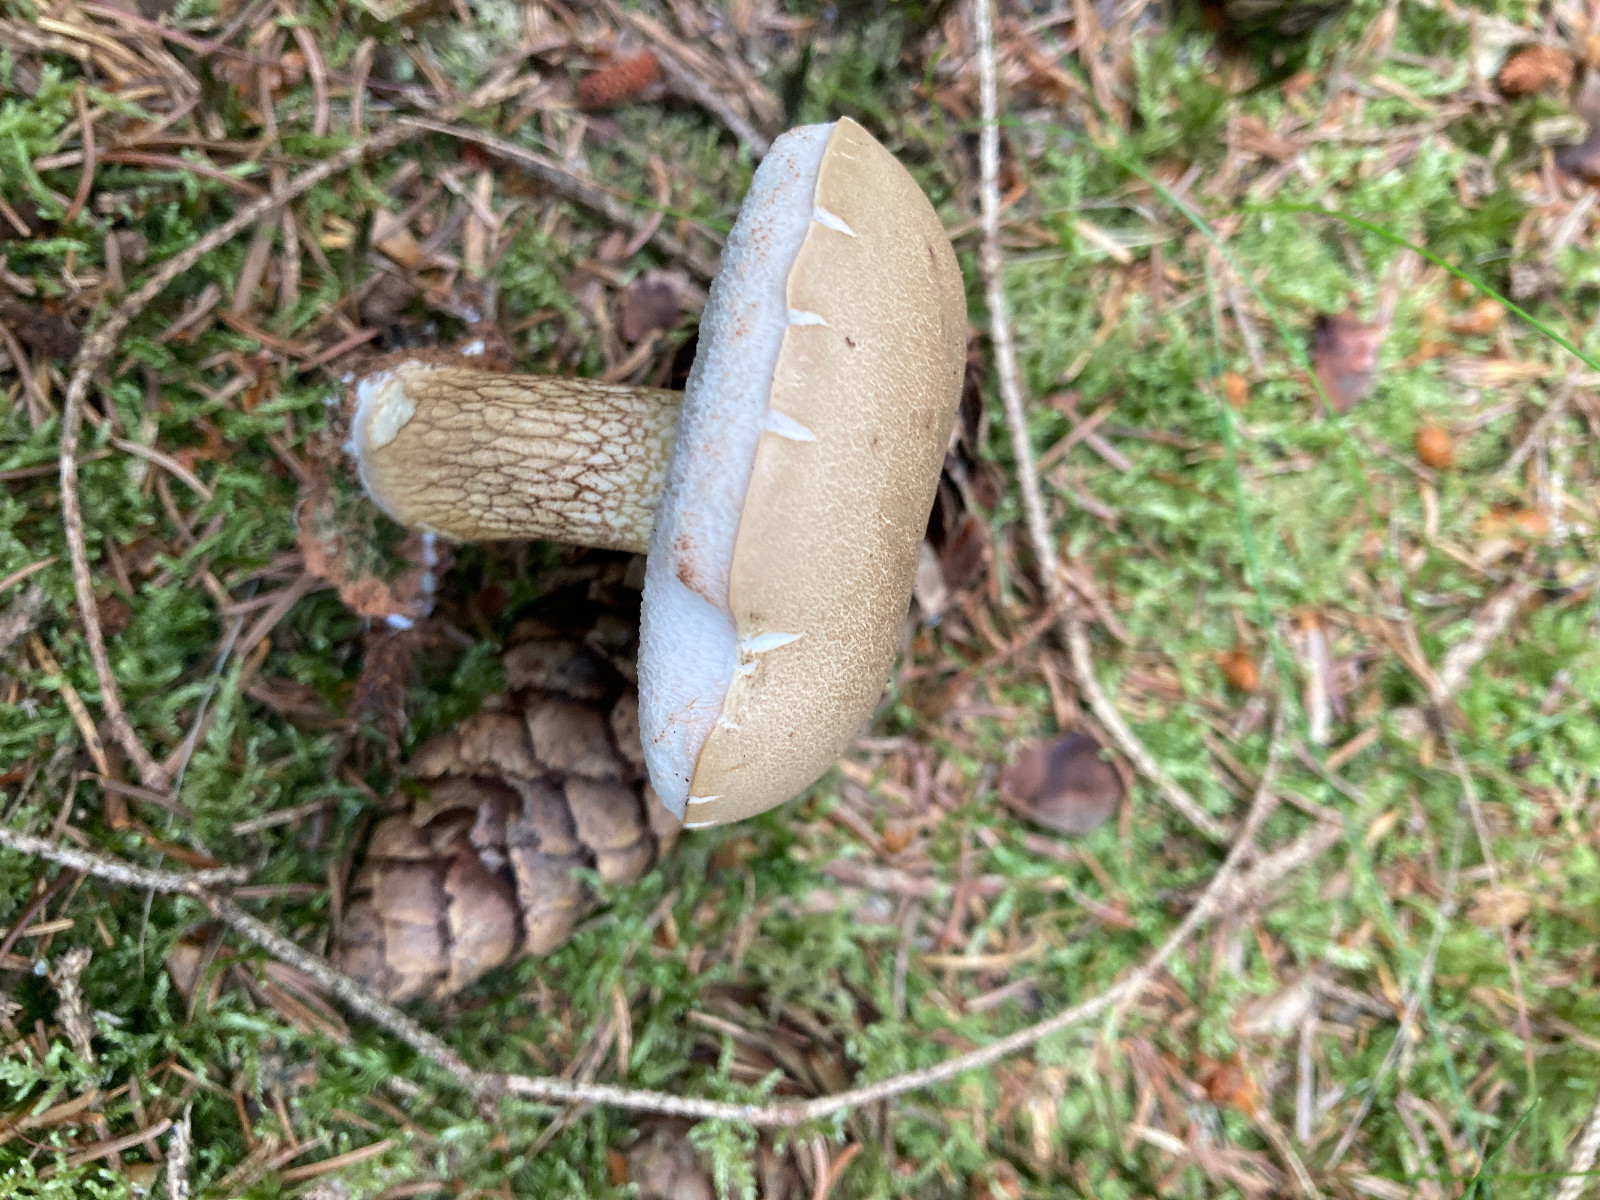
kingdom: Fungi
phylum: Basidiomycota
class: Agaricomycetes
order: Boletales
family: Boletaceae
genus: Tylopilus
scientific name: Tylopilus felleus
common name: galderørhat
